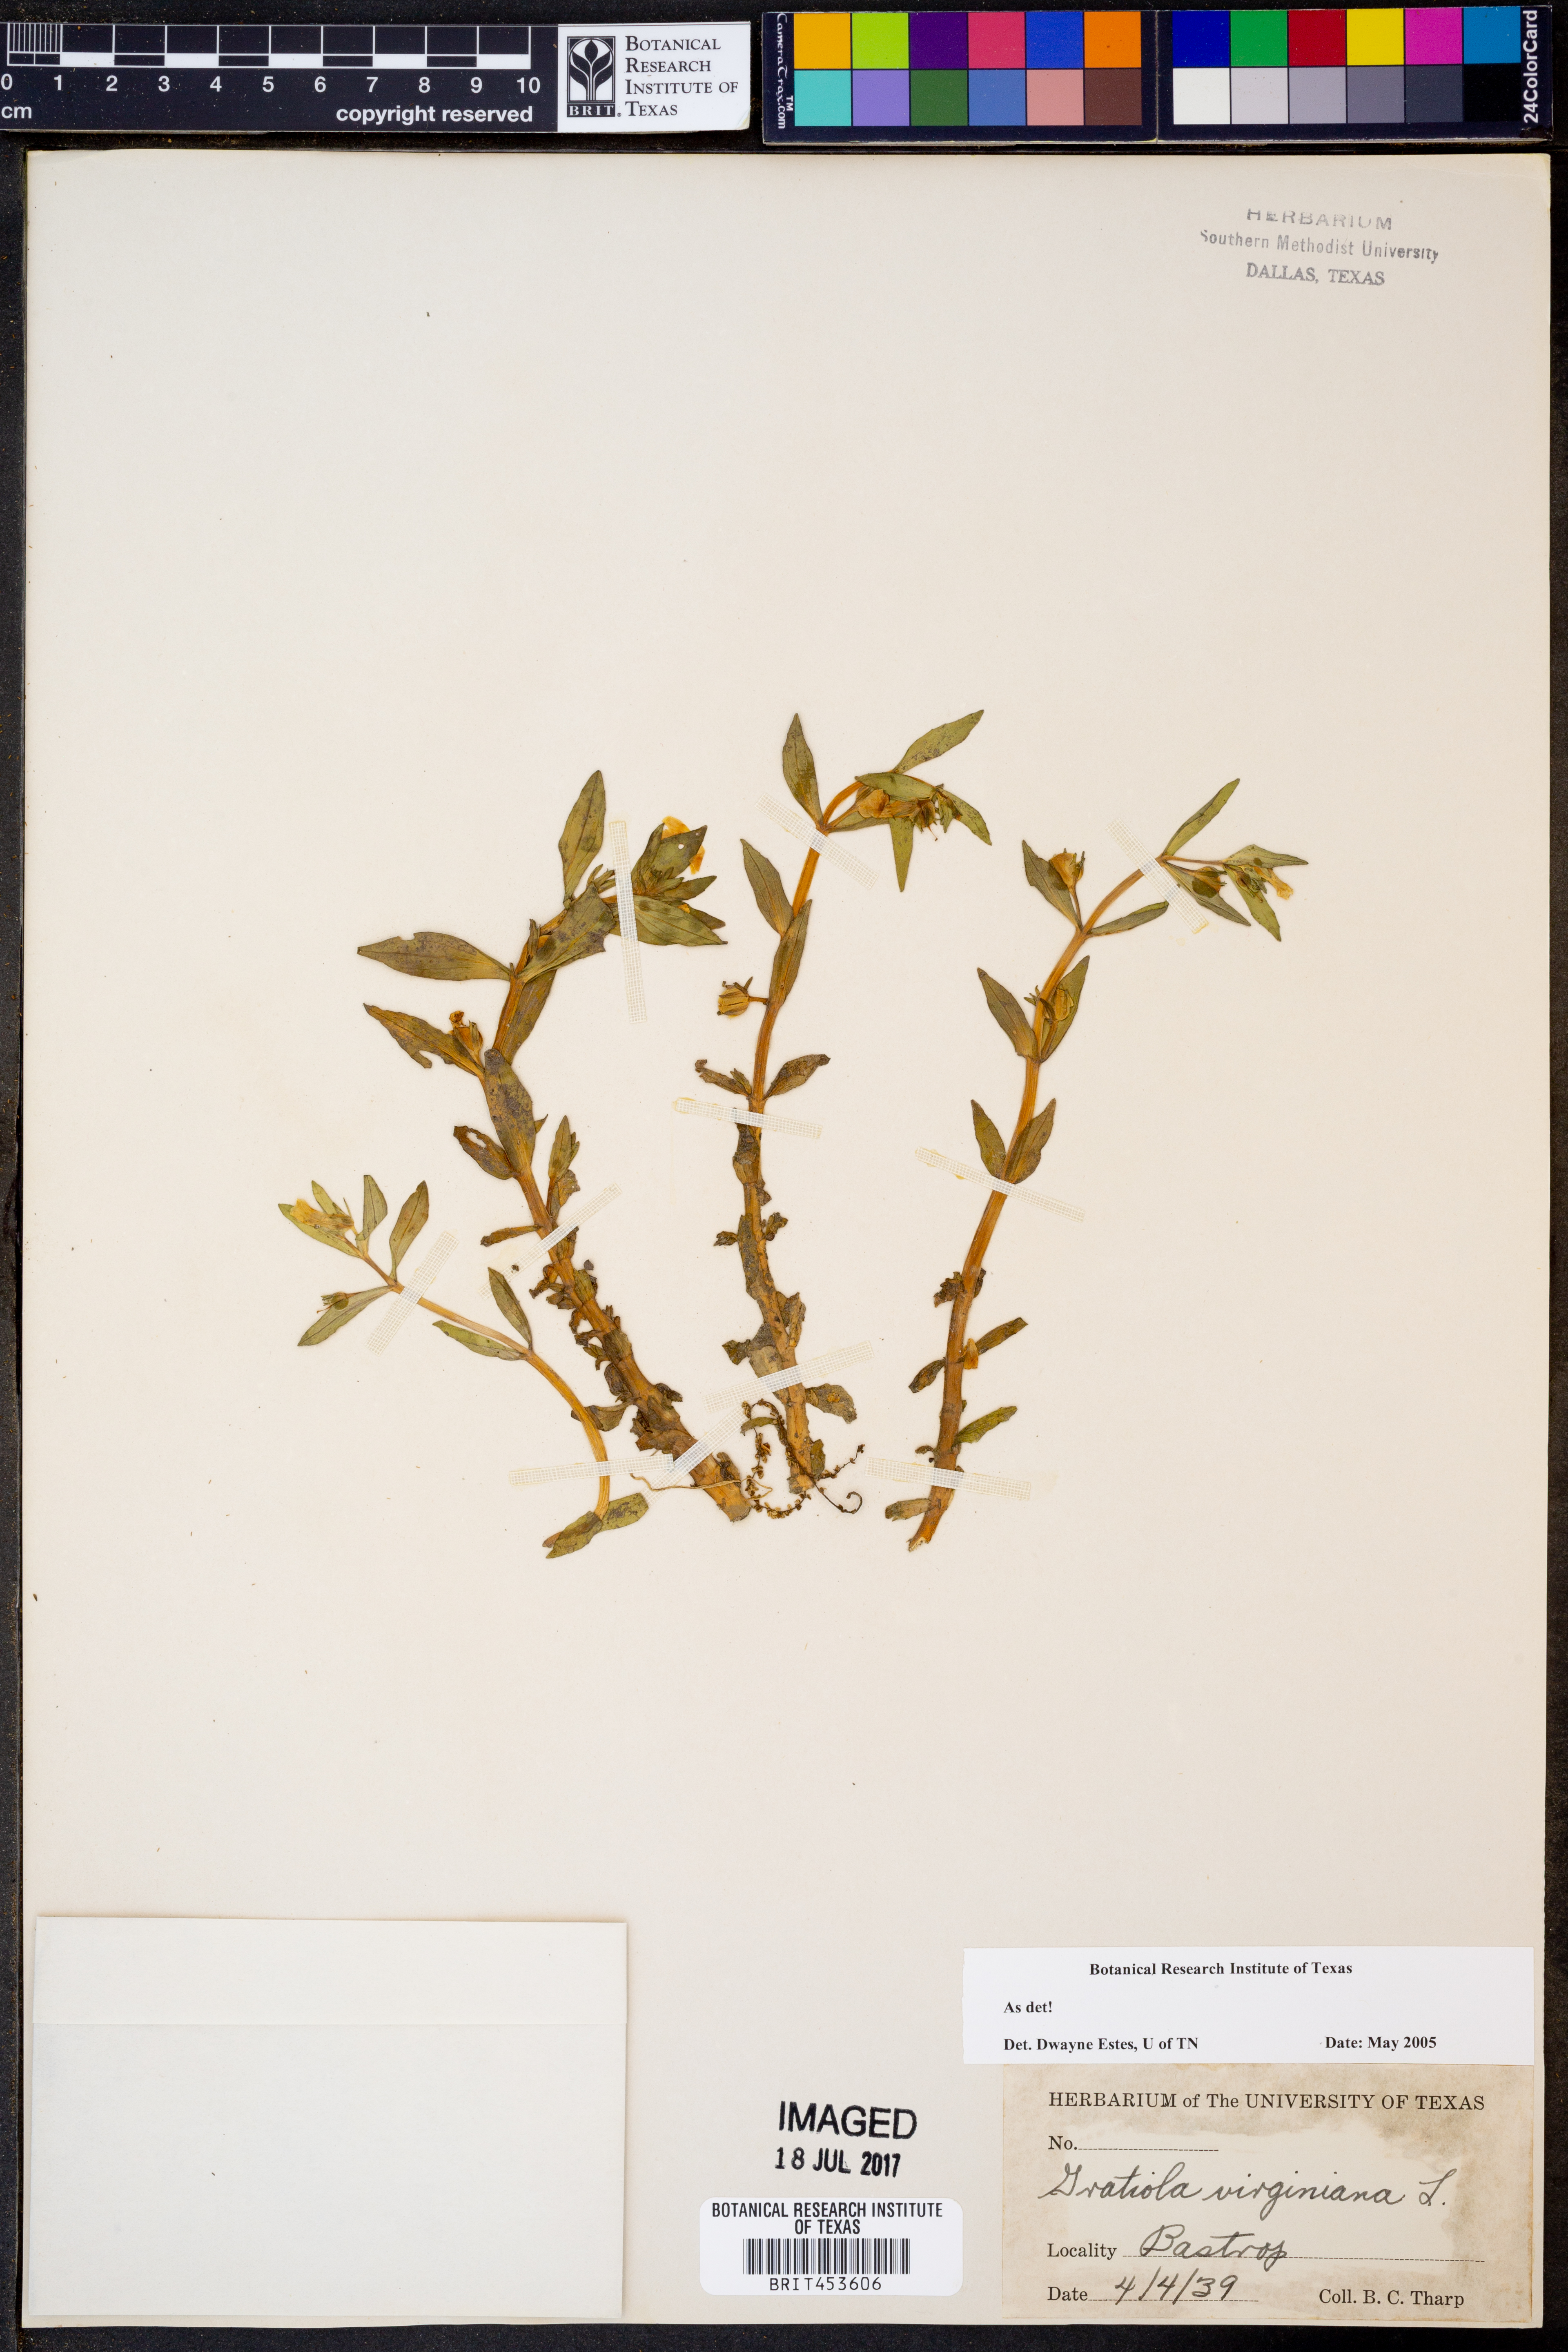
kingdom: Plantae
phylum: Tracheophyta
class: Magnoliopsida
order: Lamiales
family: Plantaginaceae
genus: Gratiola
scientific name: Gratiola virginiana
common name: Roundfruit hedgehyssop
